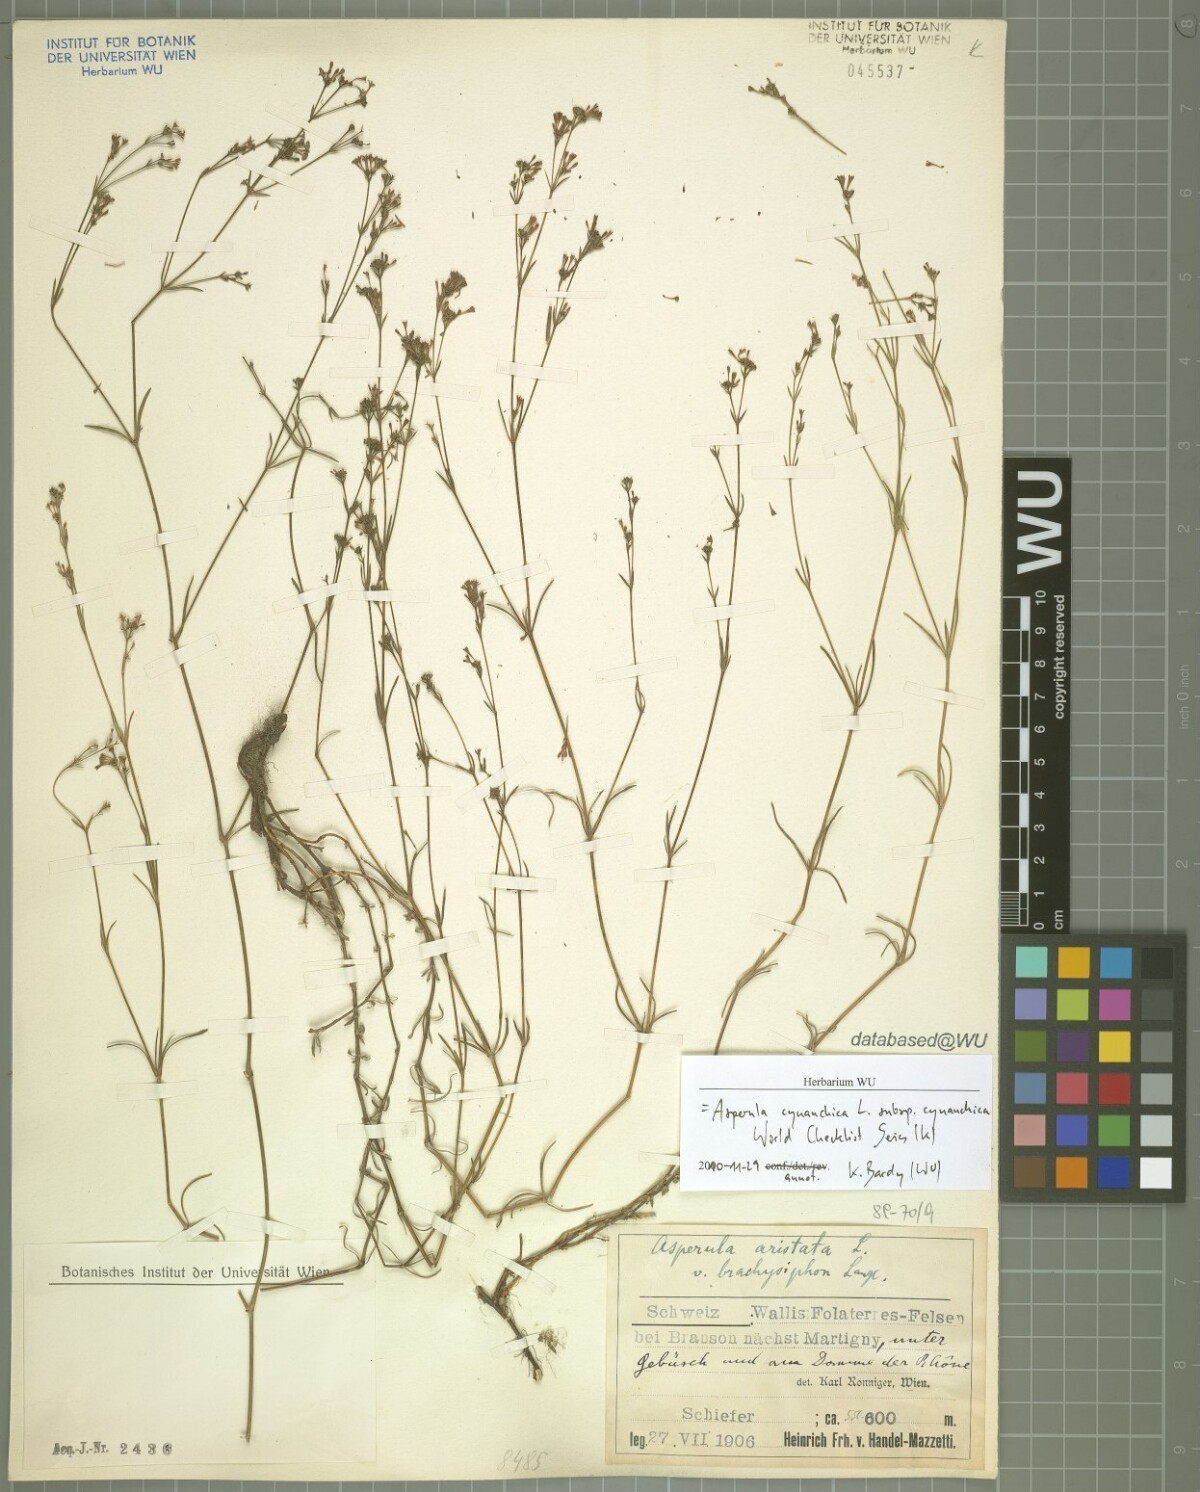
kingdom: Plantae
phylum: Tracheophyta
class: Magnoliopsida
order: Gentianales
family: Rubiaceae
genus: Cynanchica
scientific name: Cynanchica pyrenaica
